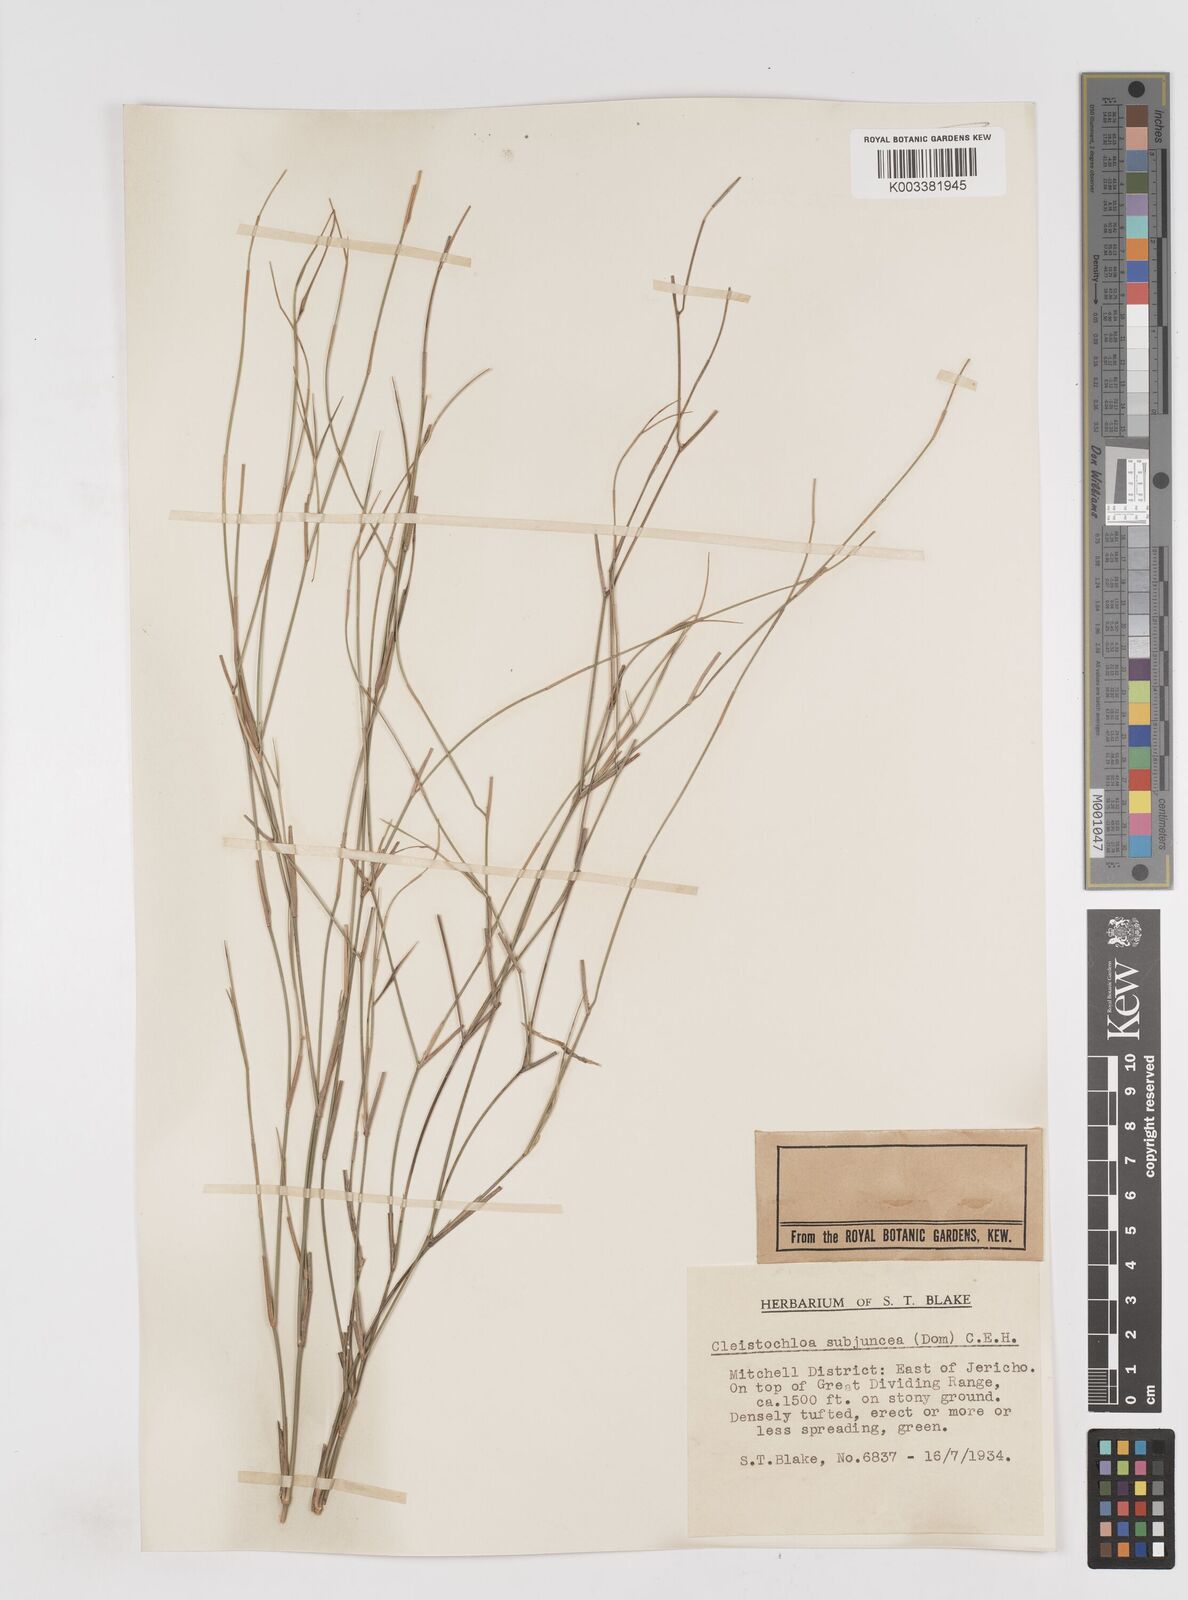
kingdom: Plantae
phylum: Tracheophyta
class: Liliopsida
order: Poales
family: Poaceae
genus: Cleistochloa
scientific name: Cleistochloa subjuncea
